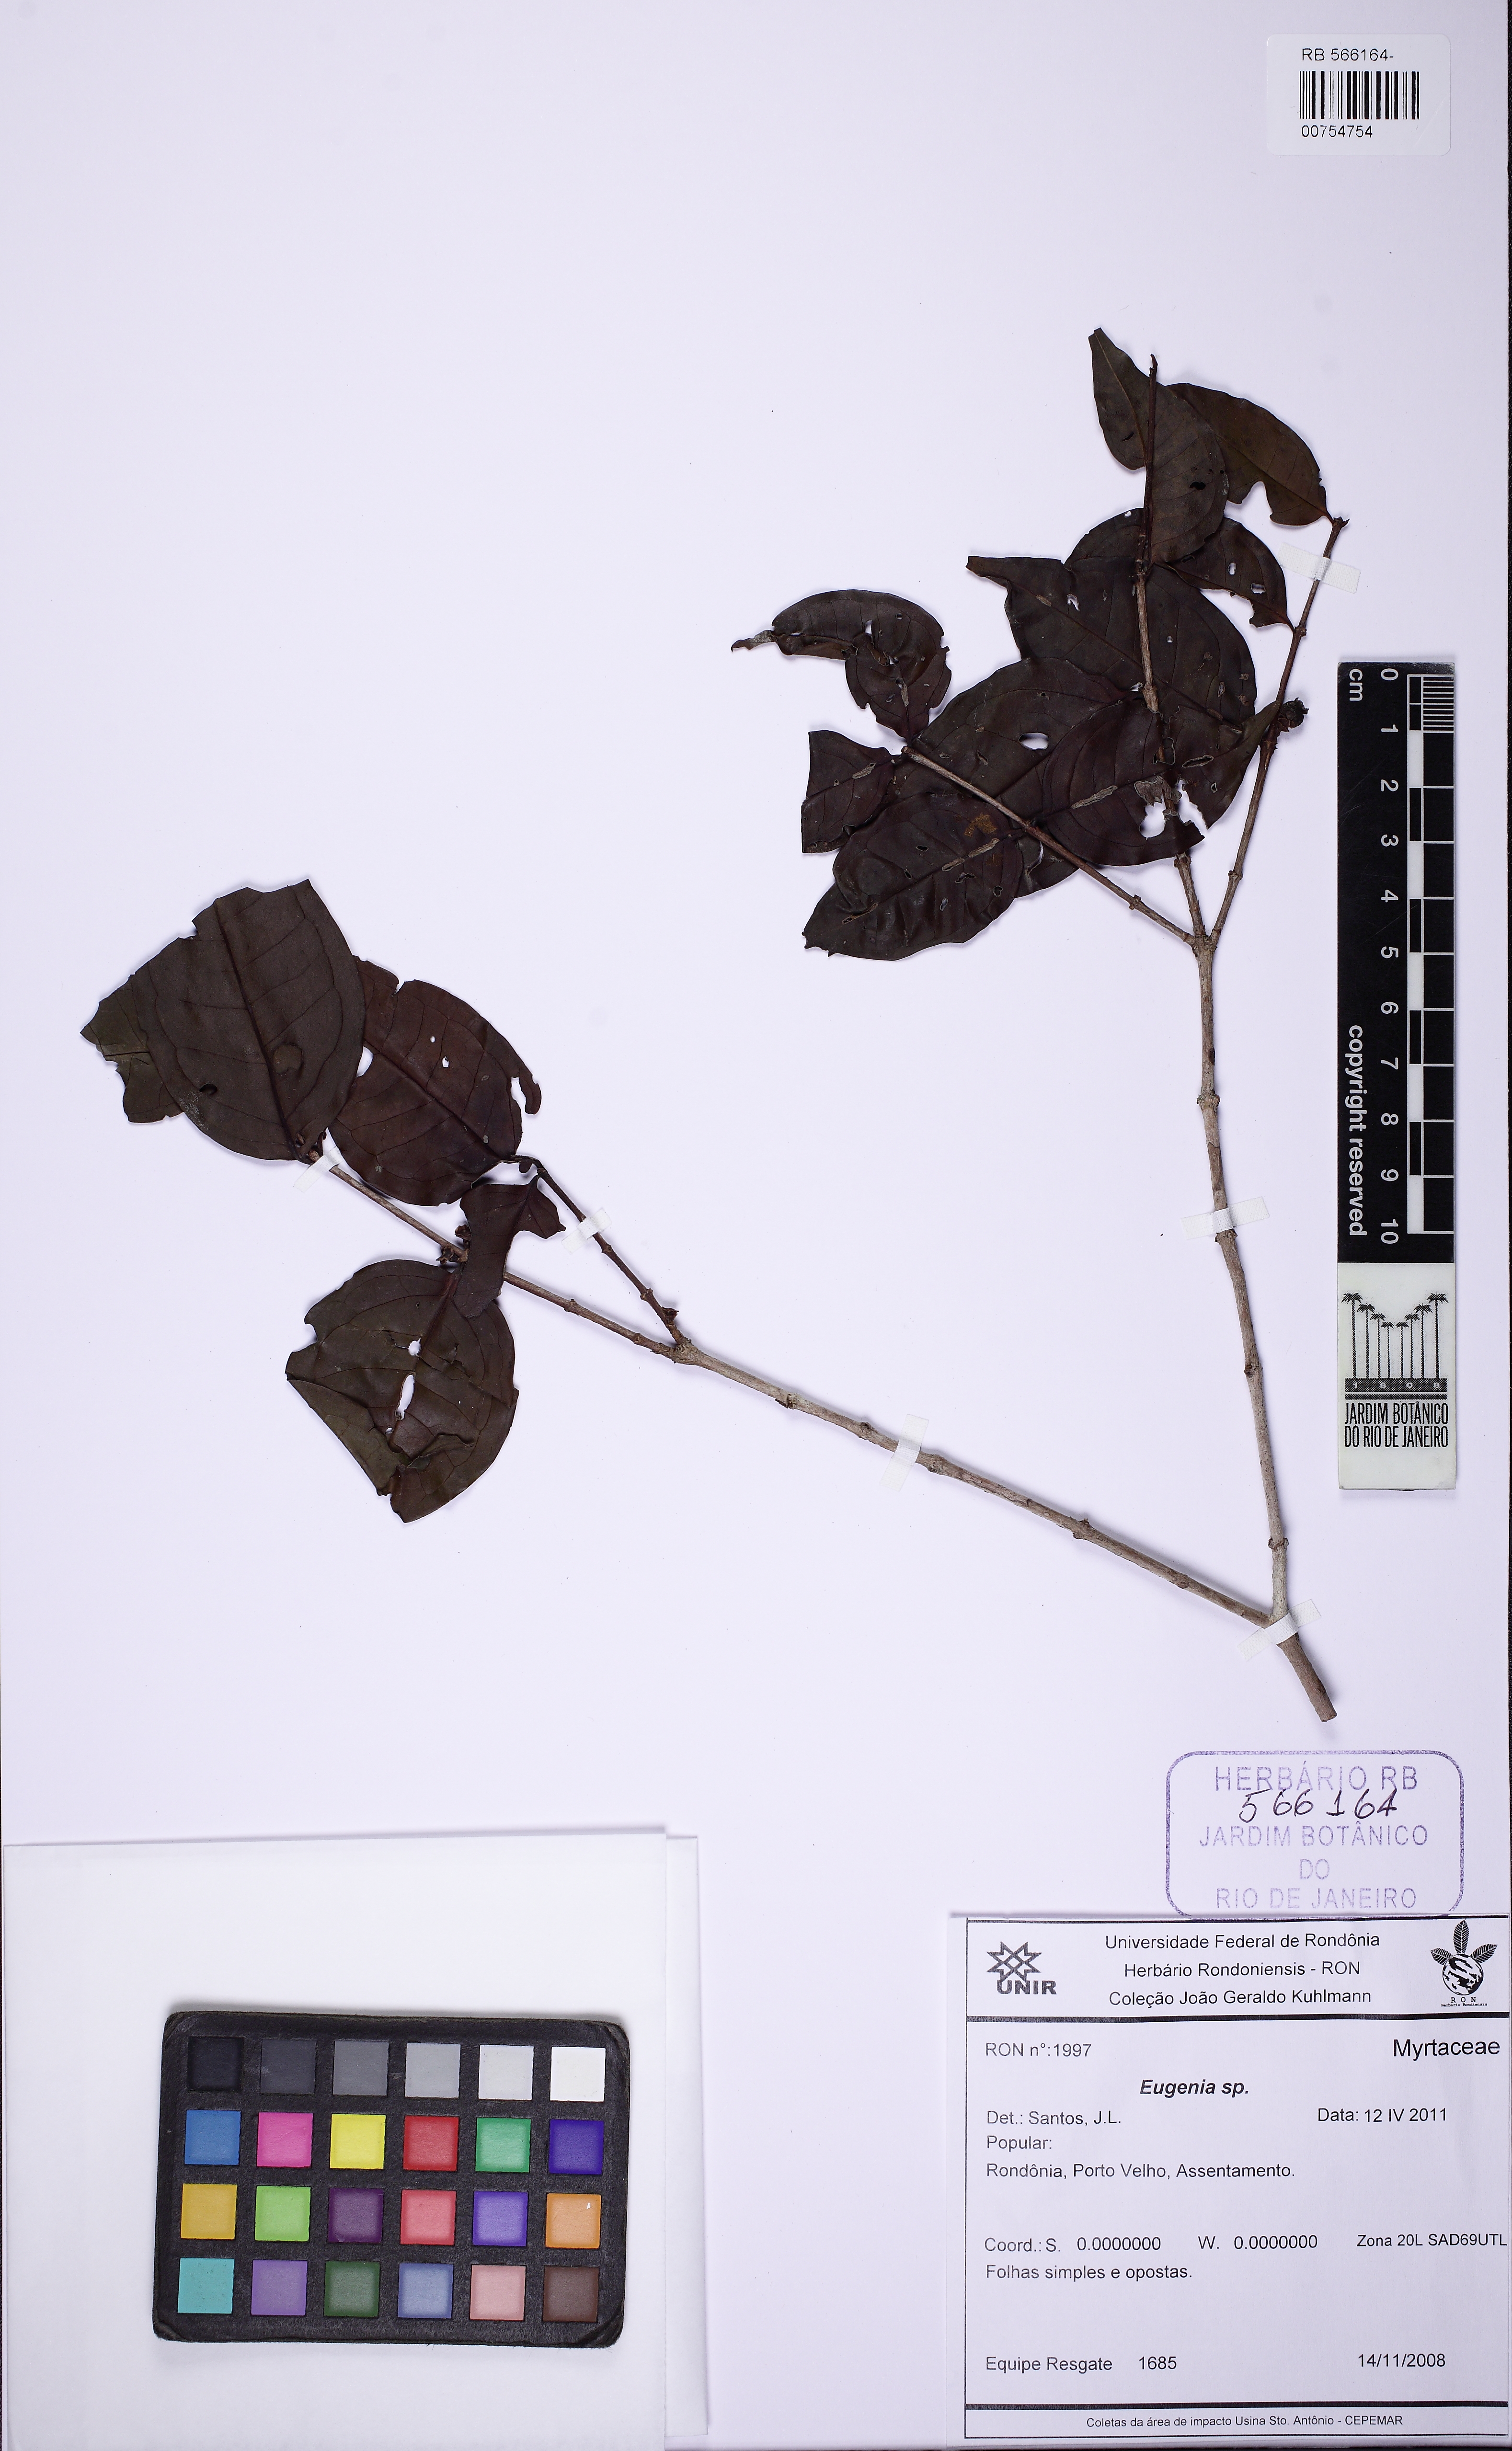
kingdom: Plantae
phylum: Tracheophyta
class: Magnoliopsida
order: Myrtales
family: Melastomataceae
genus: Mouriri
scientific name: Mouriri sagotiana
